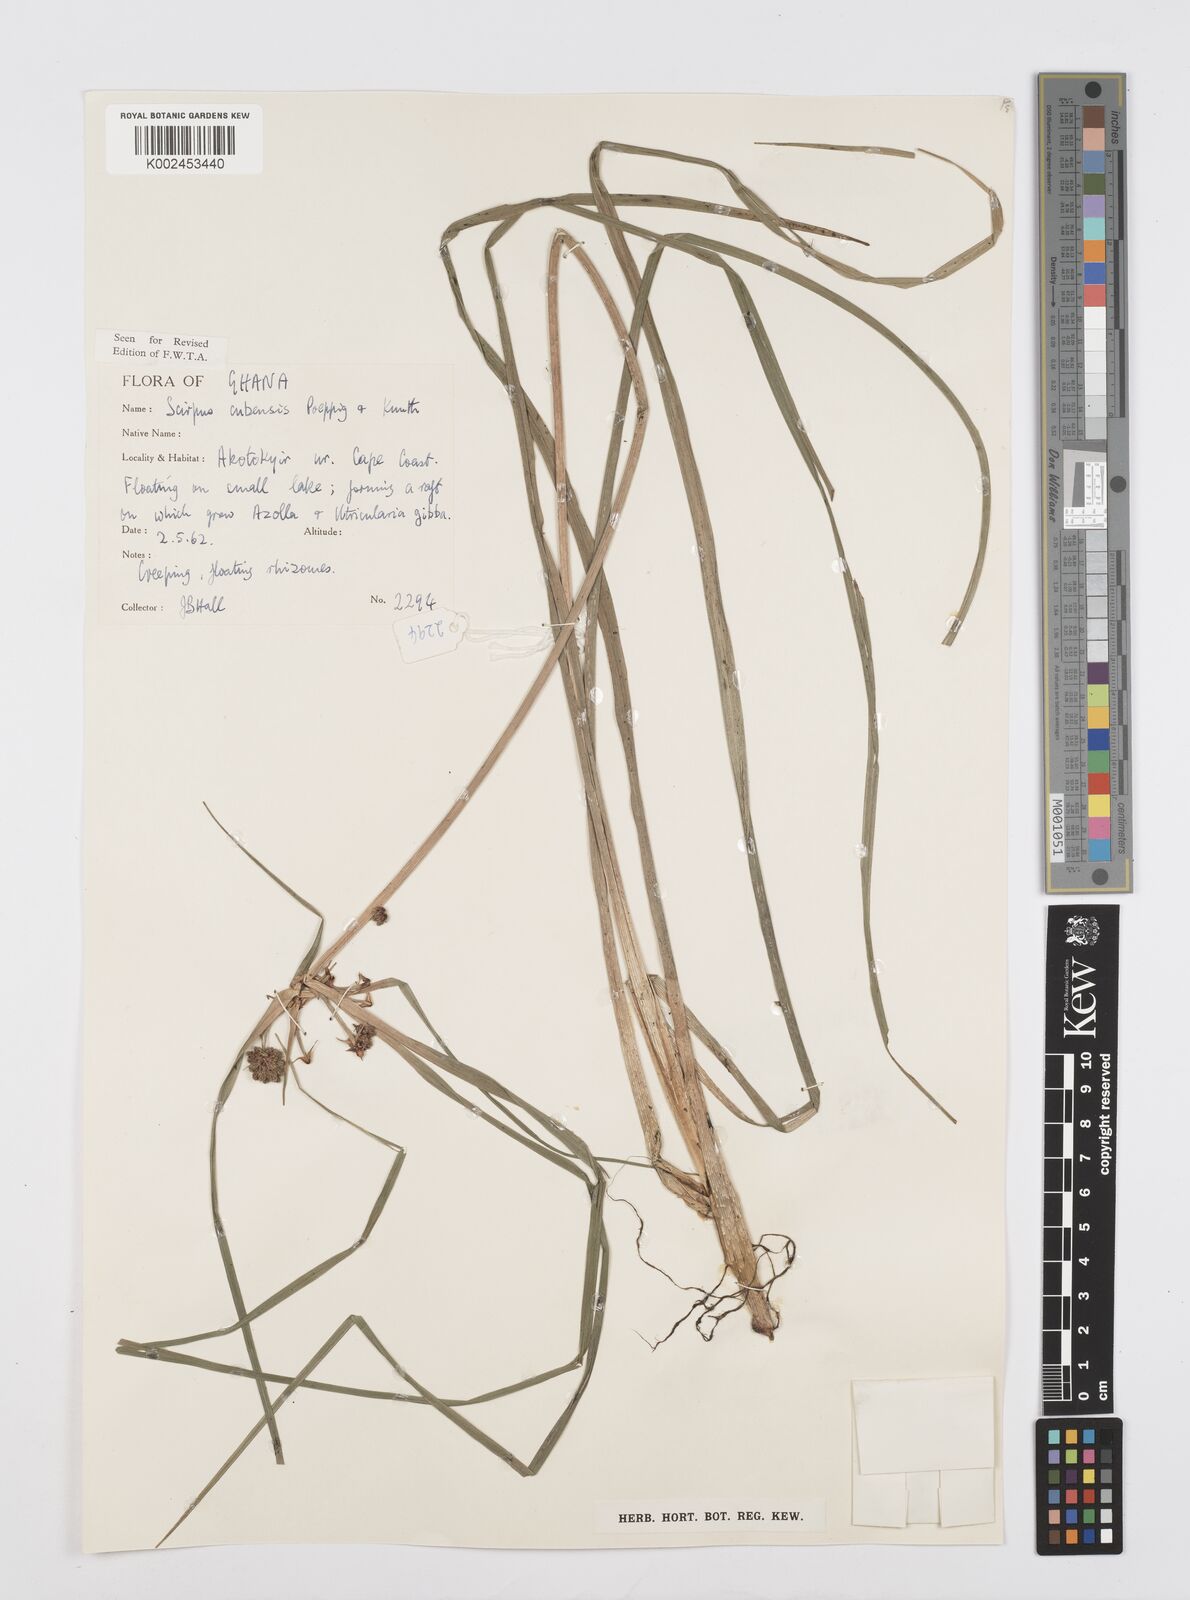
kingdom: Plantae
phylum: Tracheophyta
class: Liliopsida
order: Poales
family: Cyperaceae
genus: Cyperus
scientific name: Cyperus elegans
